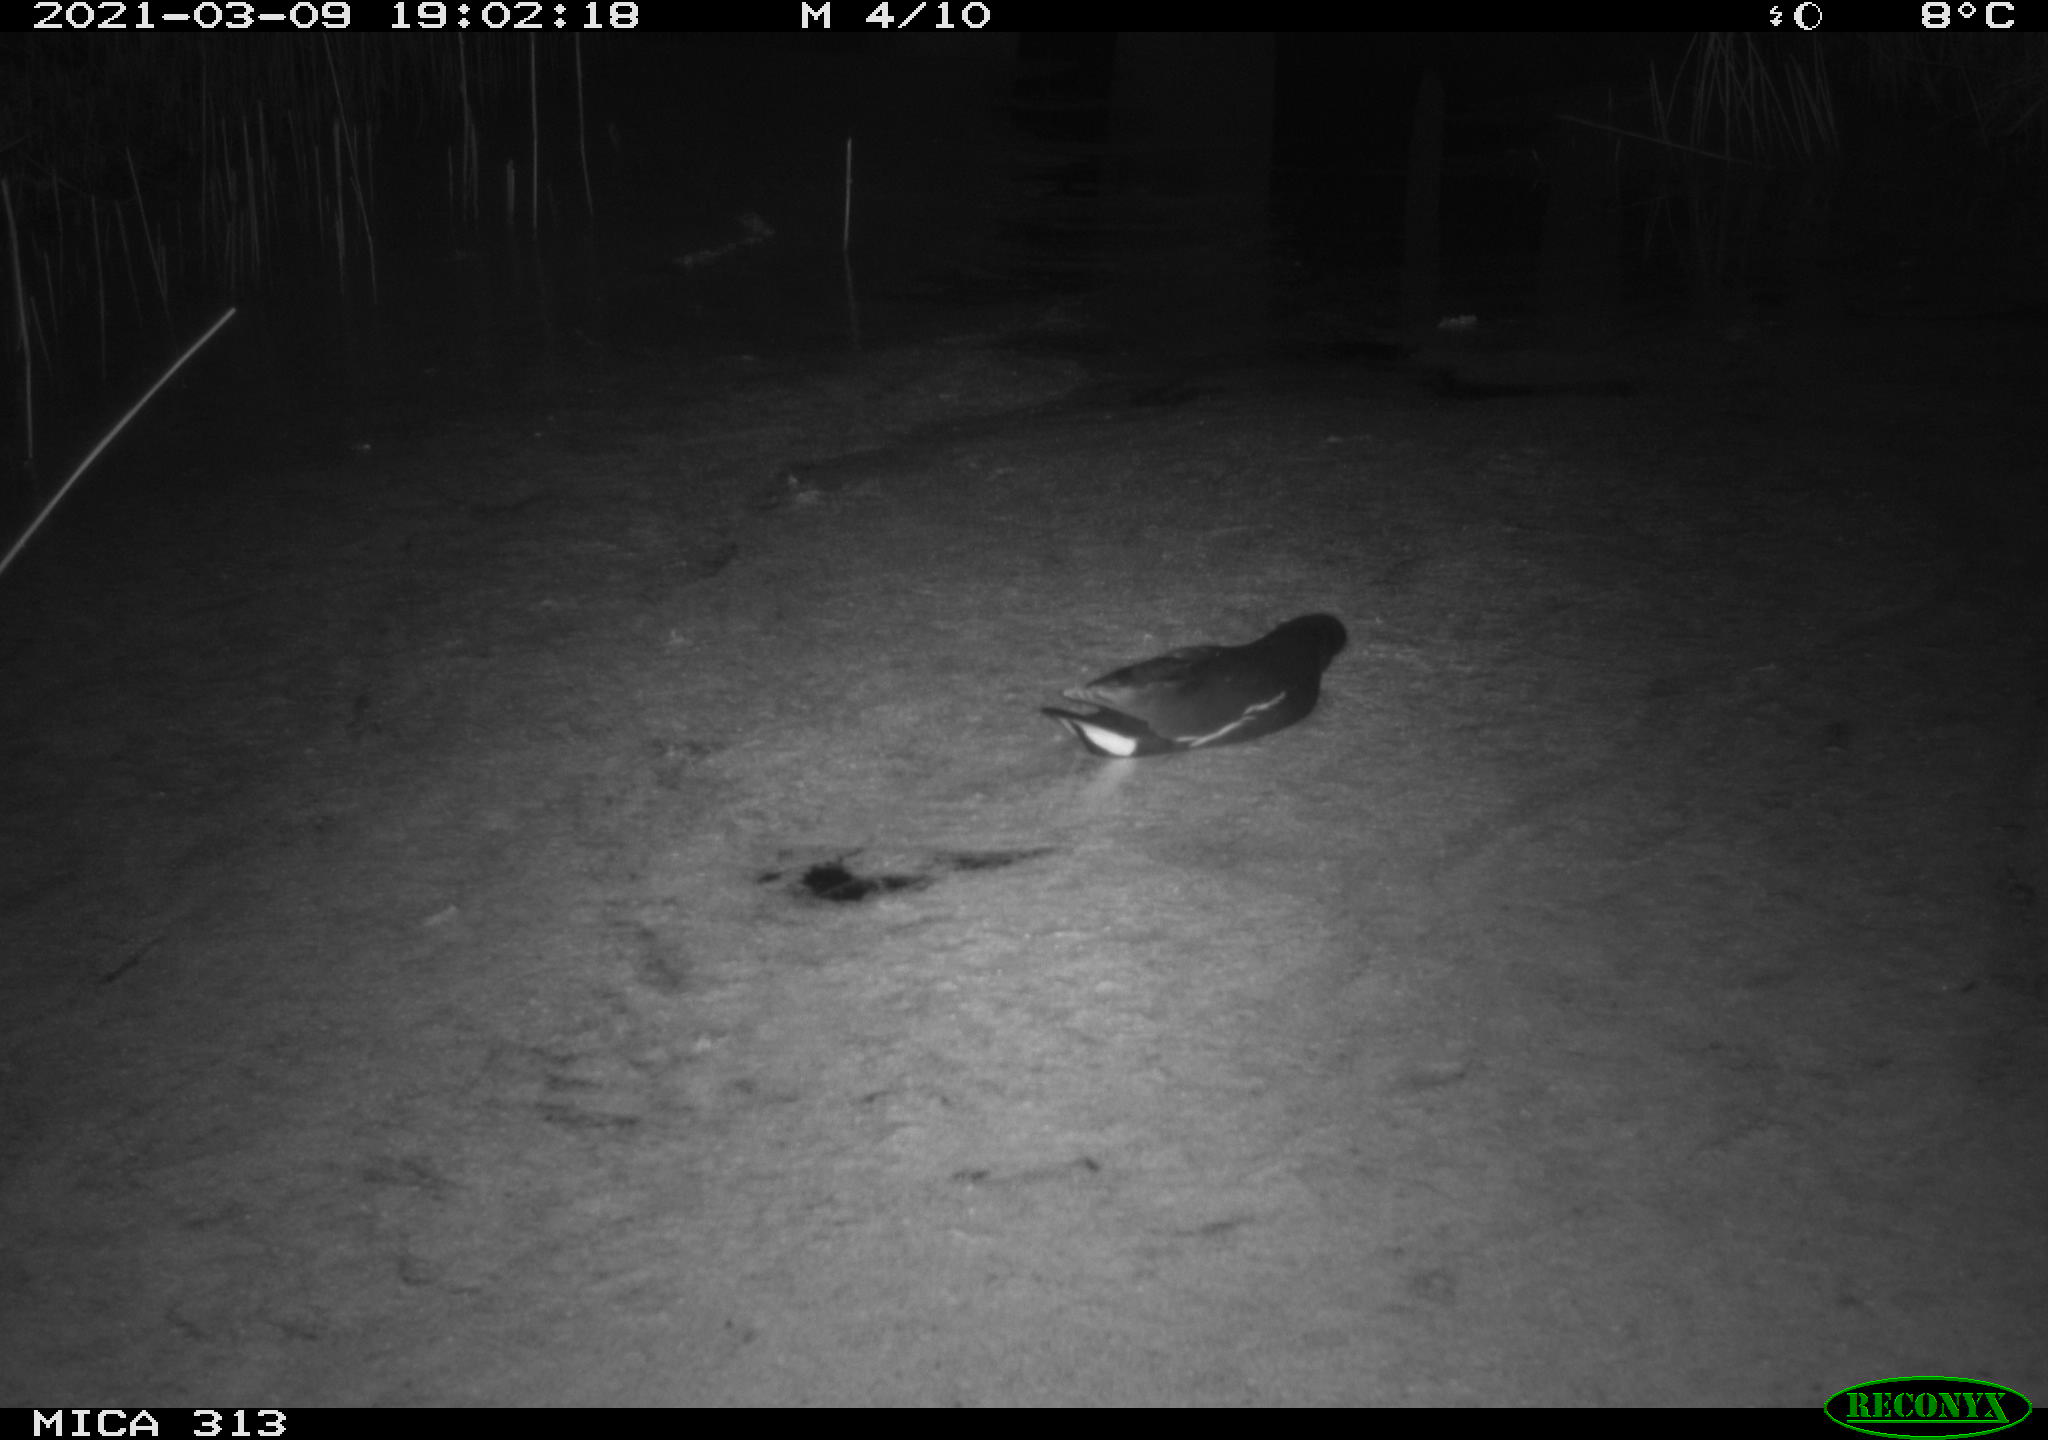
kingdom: Animalia
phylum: Chordata
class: Aves
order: Gruiformes
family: Rallidae
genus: Gallinula
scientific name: Gallinula chloropus
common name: Common moorhen
